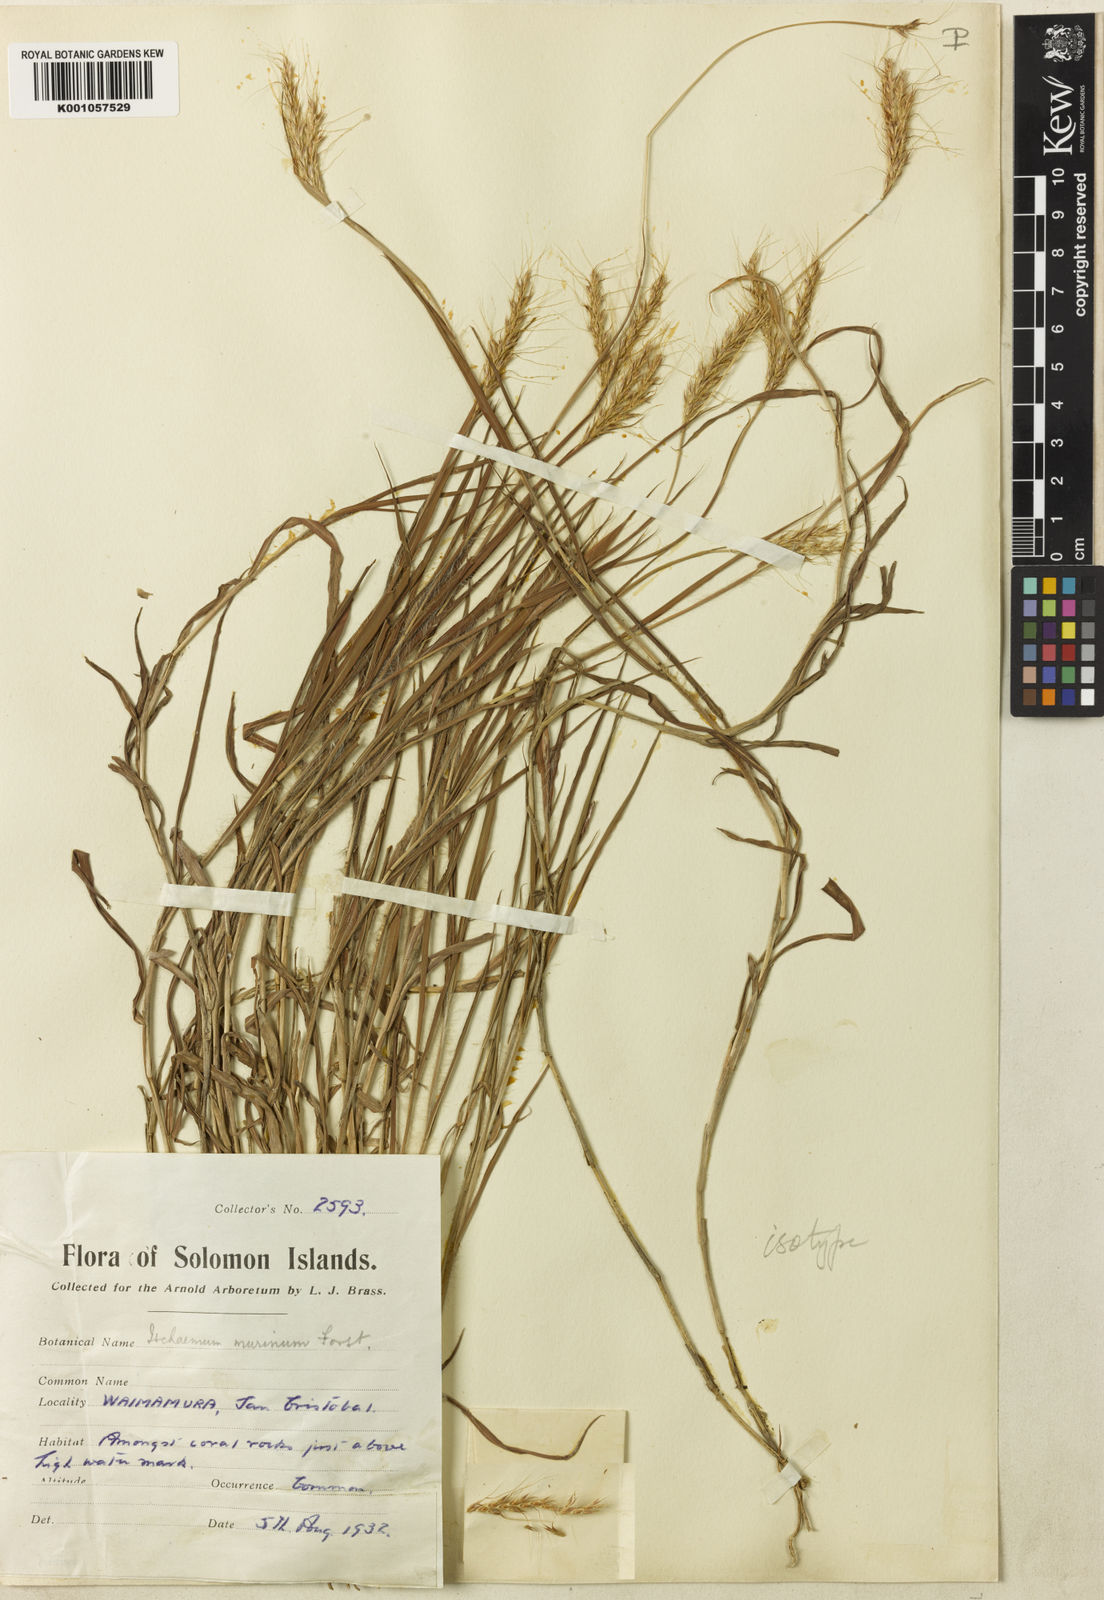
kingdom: Plantae
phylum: Tracheophyta
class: Liliopsida
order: Poales
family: Poaceae
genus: Ischaemum
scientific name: Ischaemum murinum
